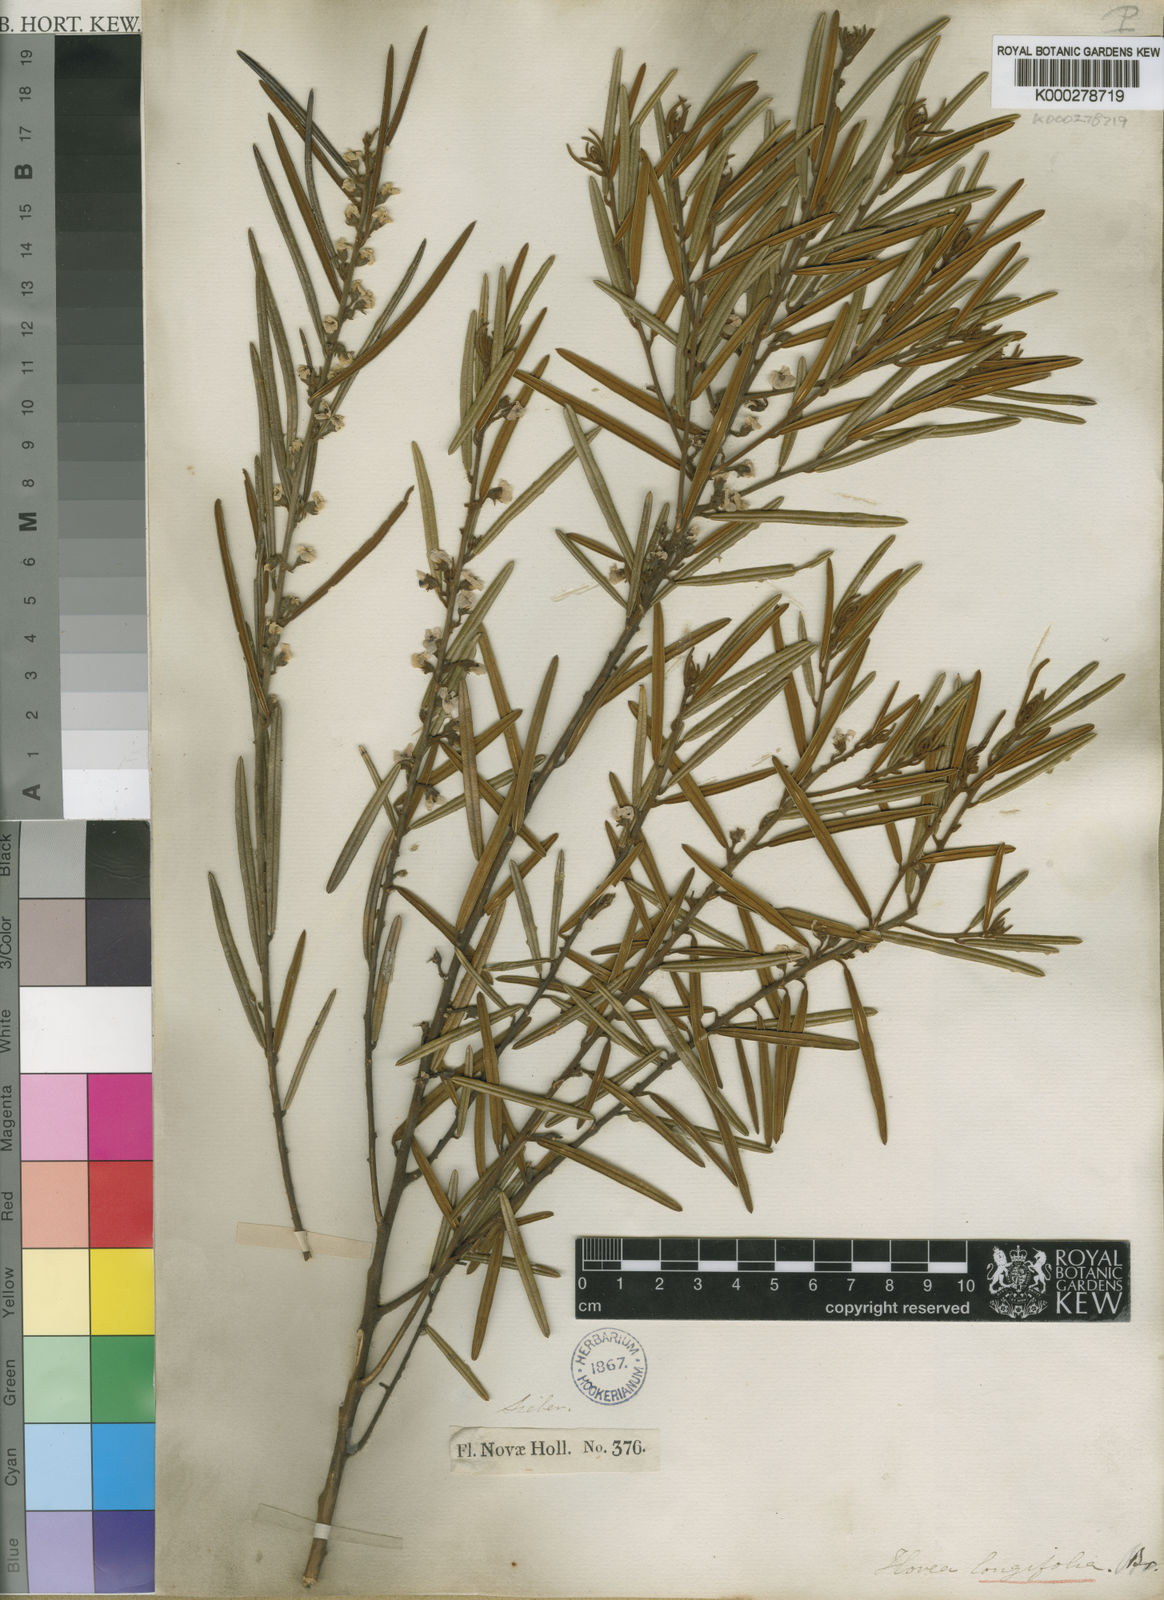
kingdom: Plantae
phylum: Tracheophyta
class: Magnoliopsida
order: Fabales
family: Fabaceae
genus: Hovea
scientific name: Hovea longifolia
